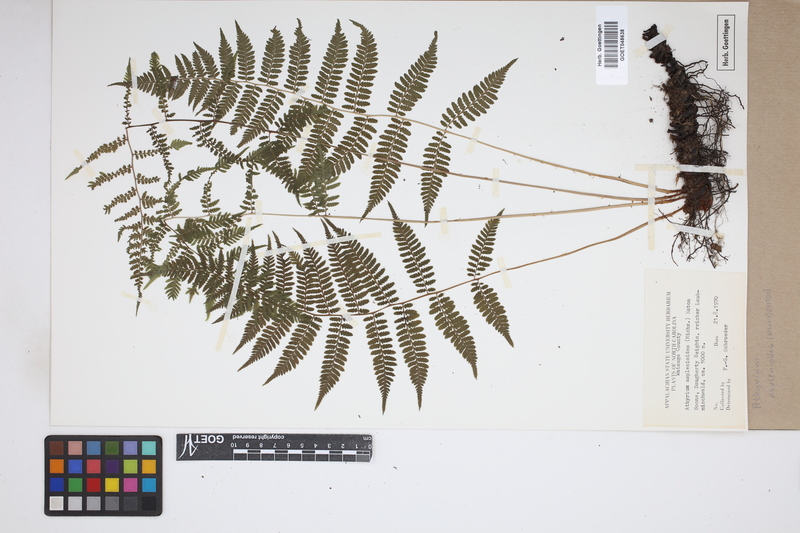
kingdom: Plantae
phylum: Tracheophyta
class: Polypodiopsida
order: Polypodiales
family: Athyriaceae
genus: Athyrium
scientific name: Athyrium asplenioides
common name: Southern lady fern
